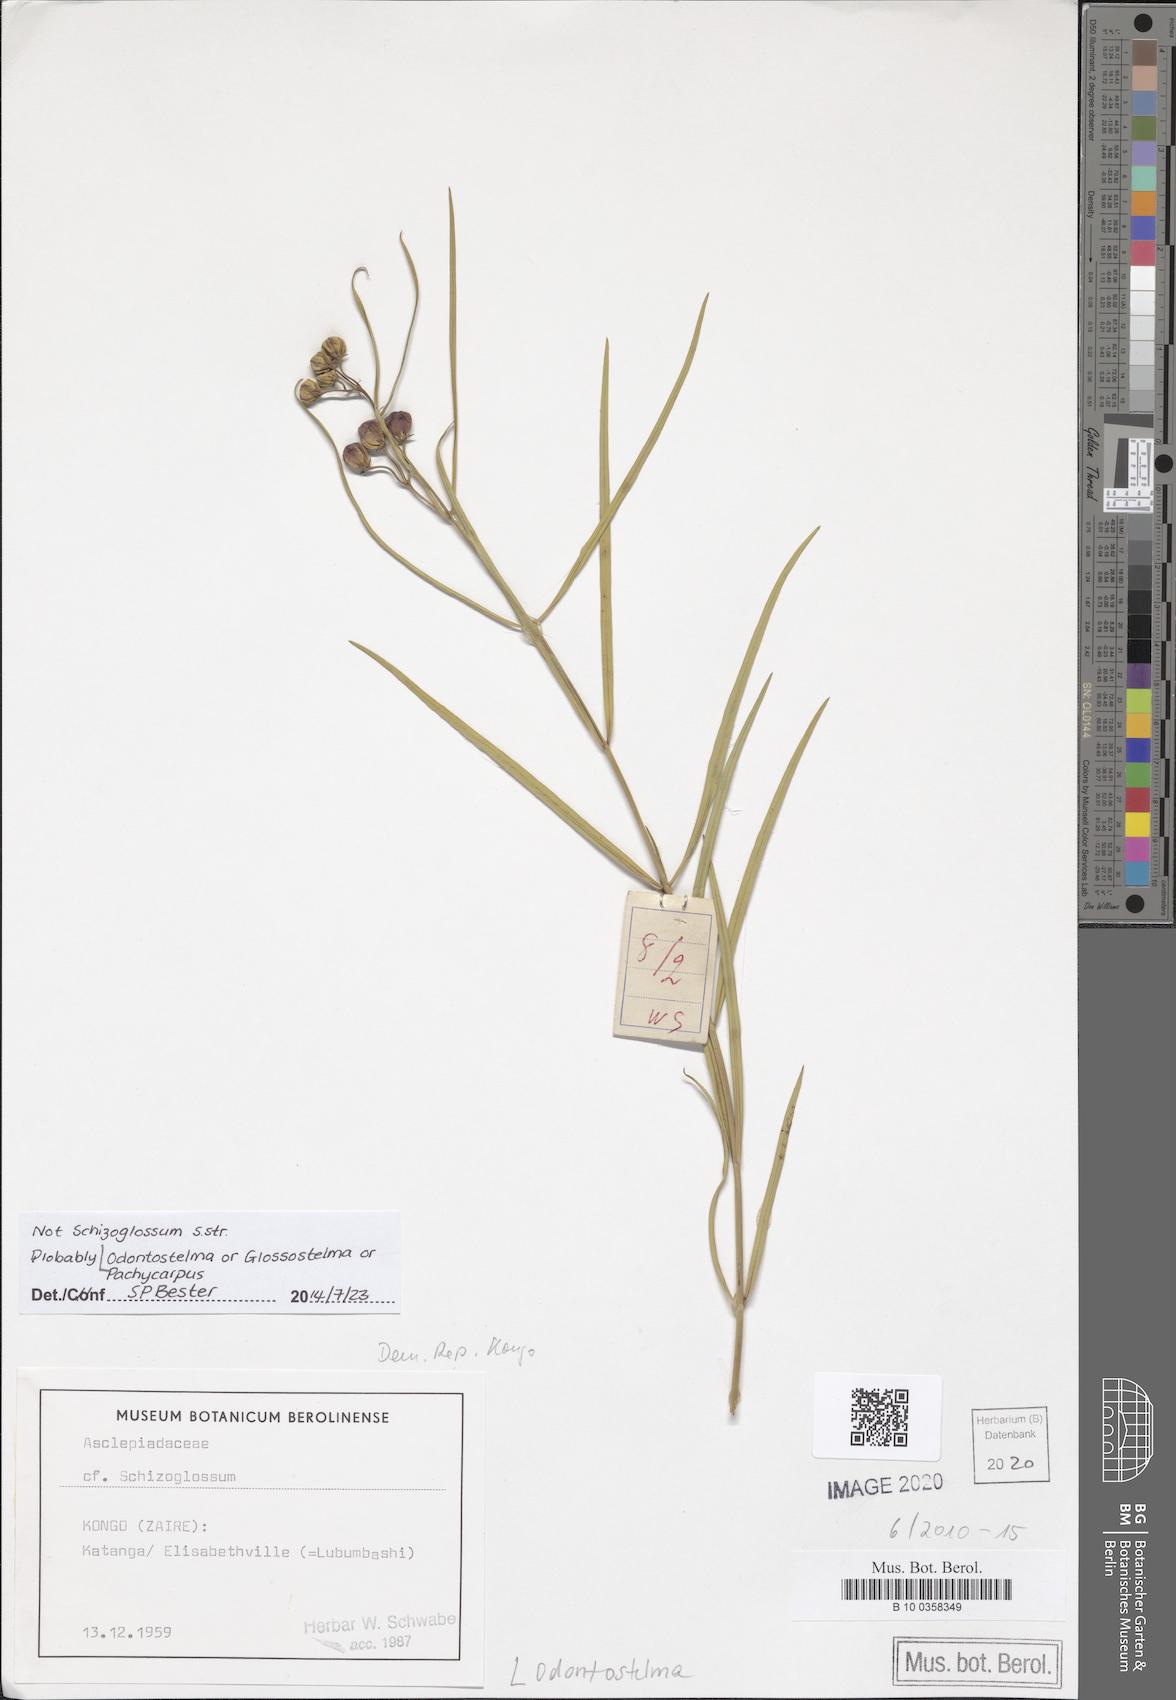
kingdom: Plantae
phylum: Tracheophyta
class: Magnoliopsida
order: Gentianales
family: Apocynaceae
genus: Asclepias
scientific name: Asclepias
